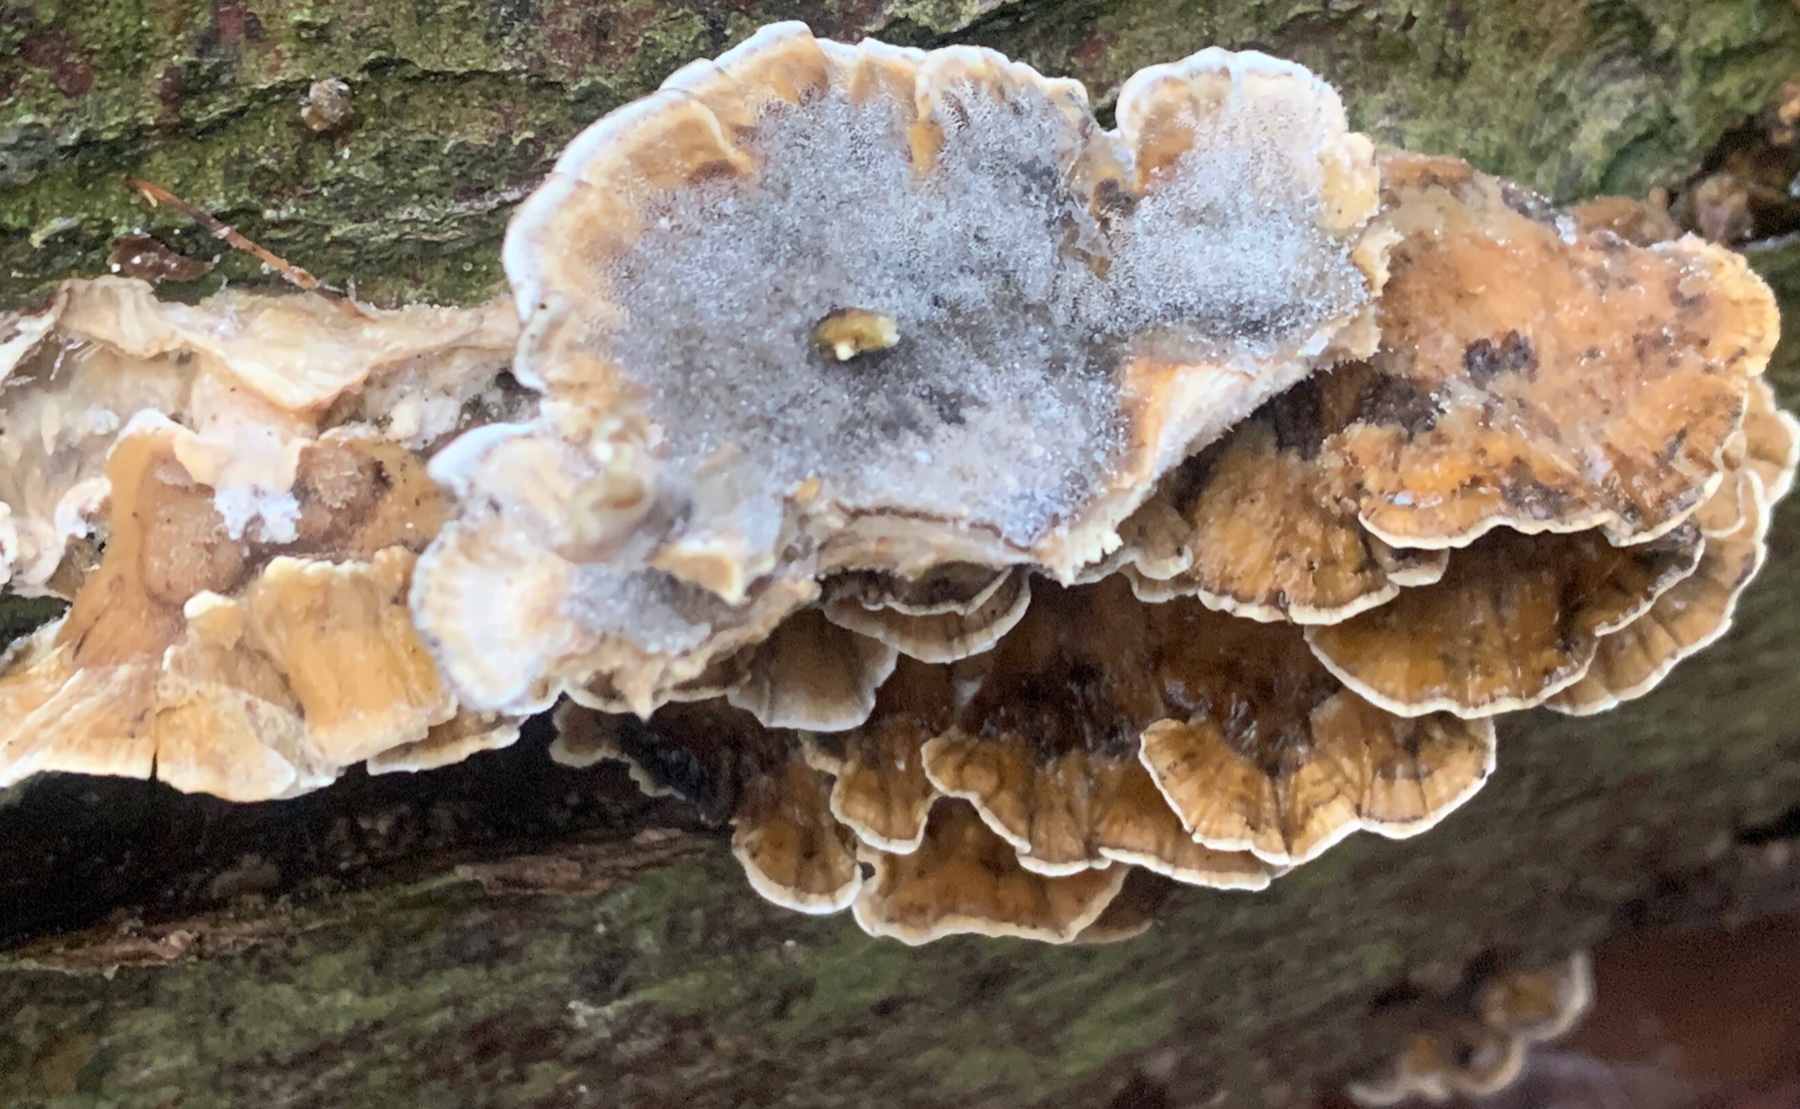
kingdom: Fungi
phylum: Basidiomycota
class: Agaricomycetes
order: Polyporales
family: Phanerochaetaceae
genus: Bjerkandera
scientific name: Bjerkandera adusta
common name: sveden sodporesvamp
